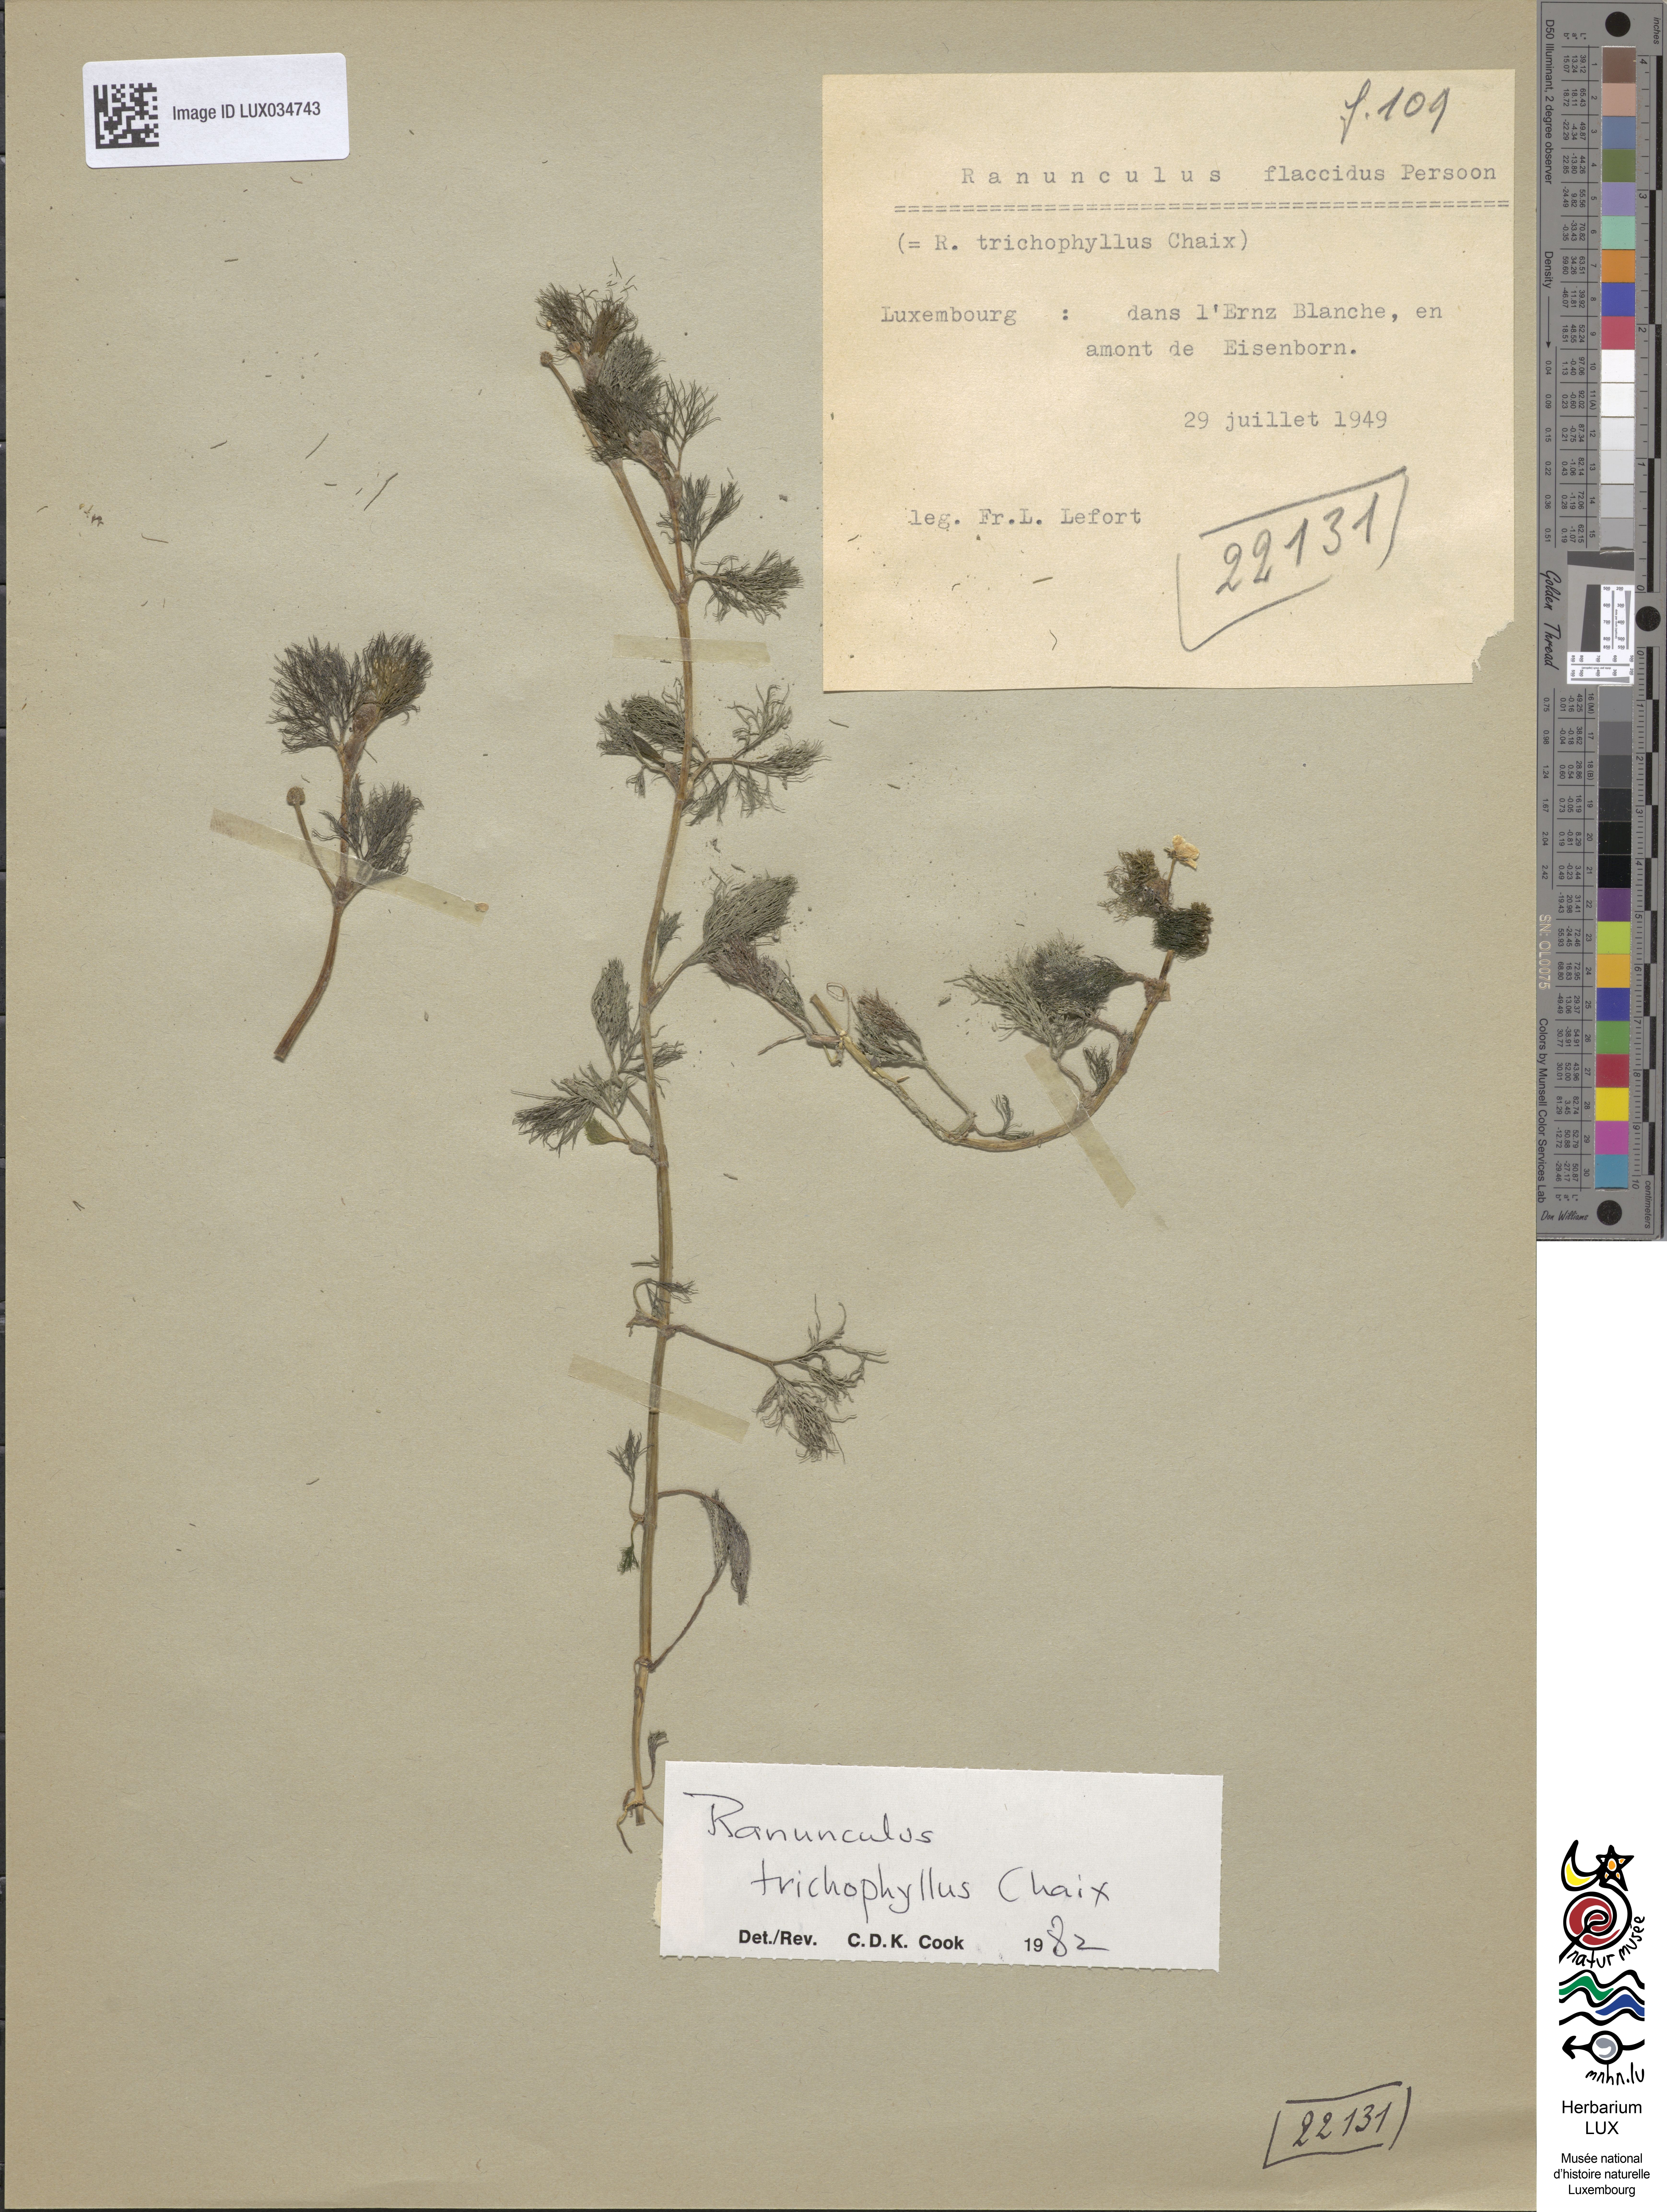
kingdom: Plantae
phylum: Tracheophyta
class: Magnoliopsida
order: Ranunculales
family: Ranunculaceae
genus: Ranunculus
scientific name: Ranunculus trichophyllus
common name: Thread-leaved water-crowfoot
